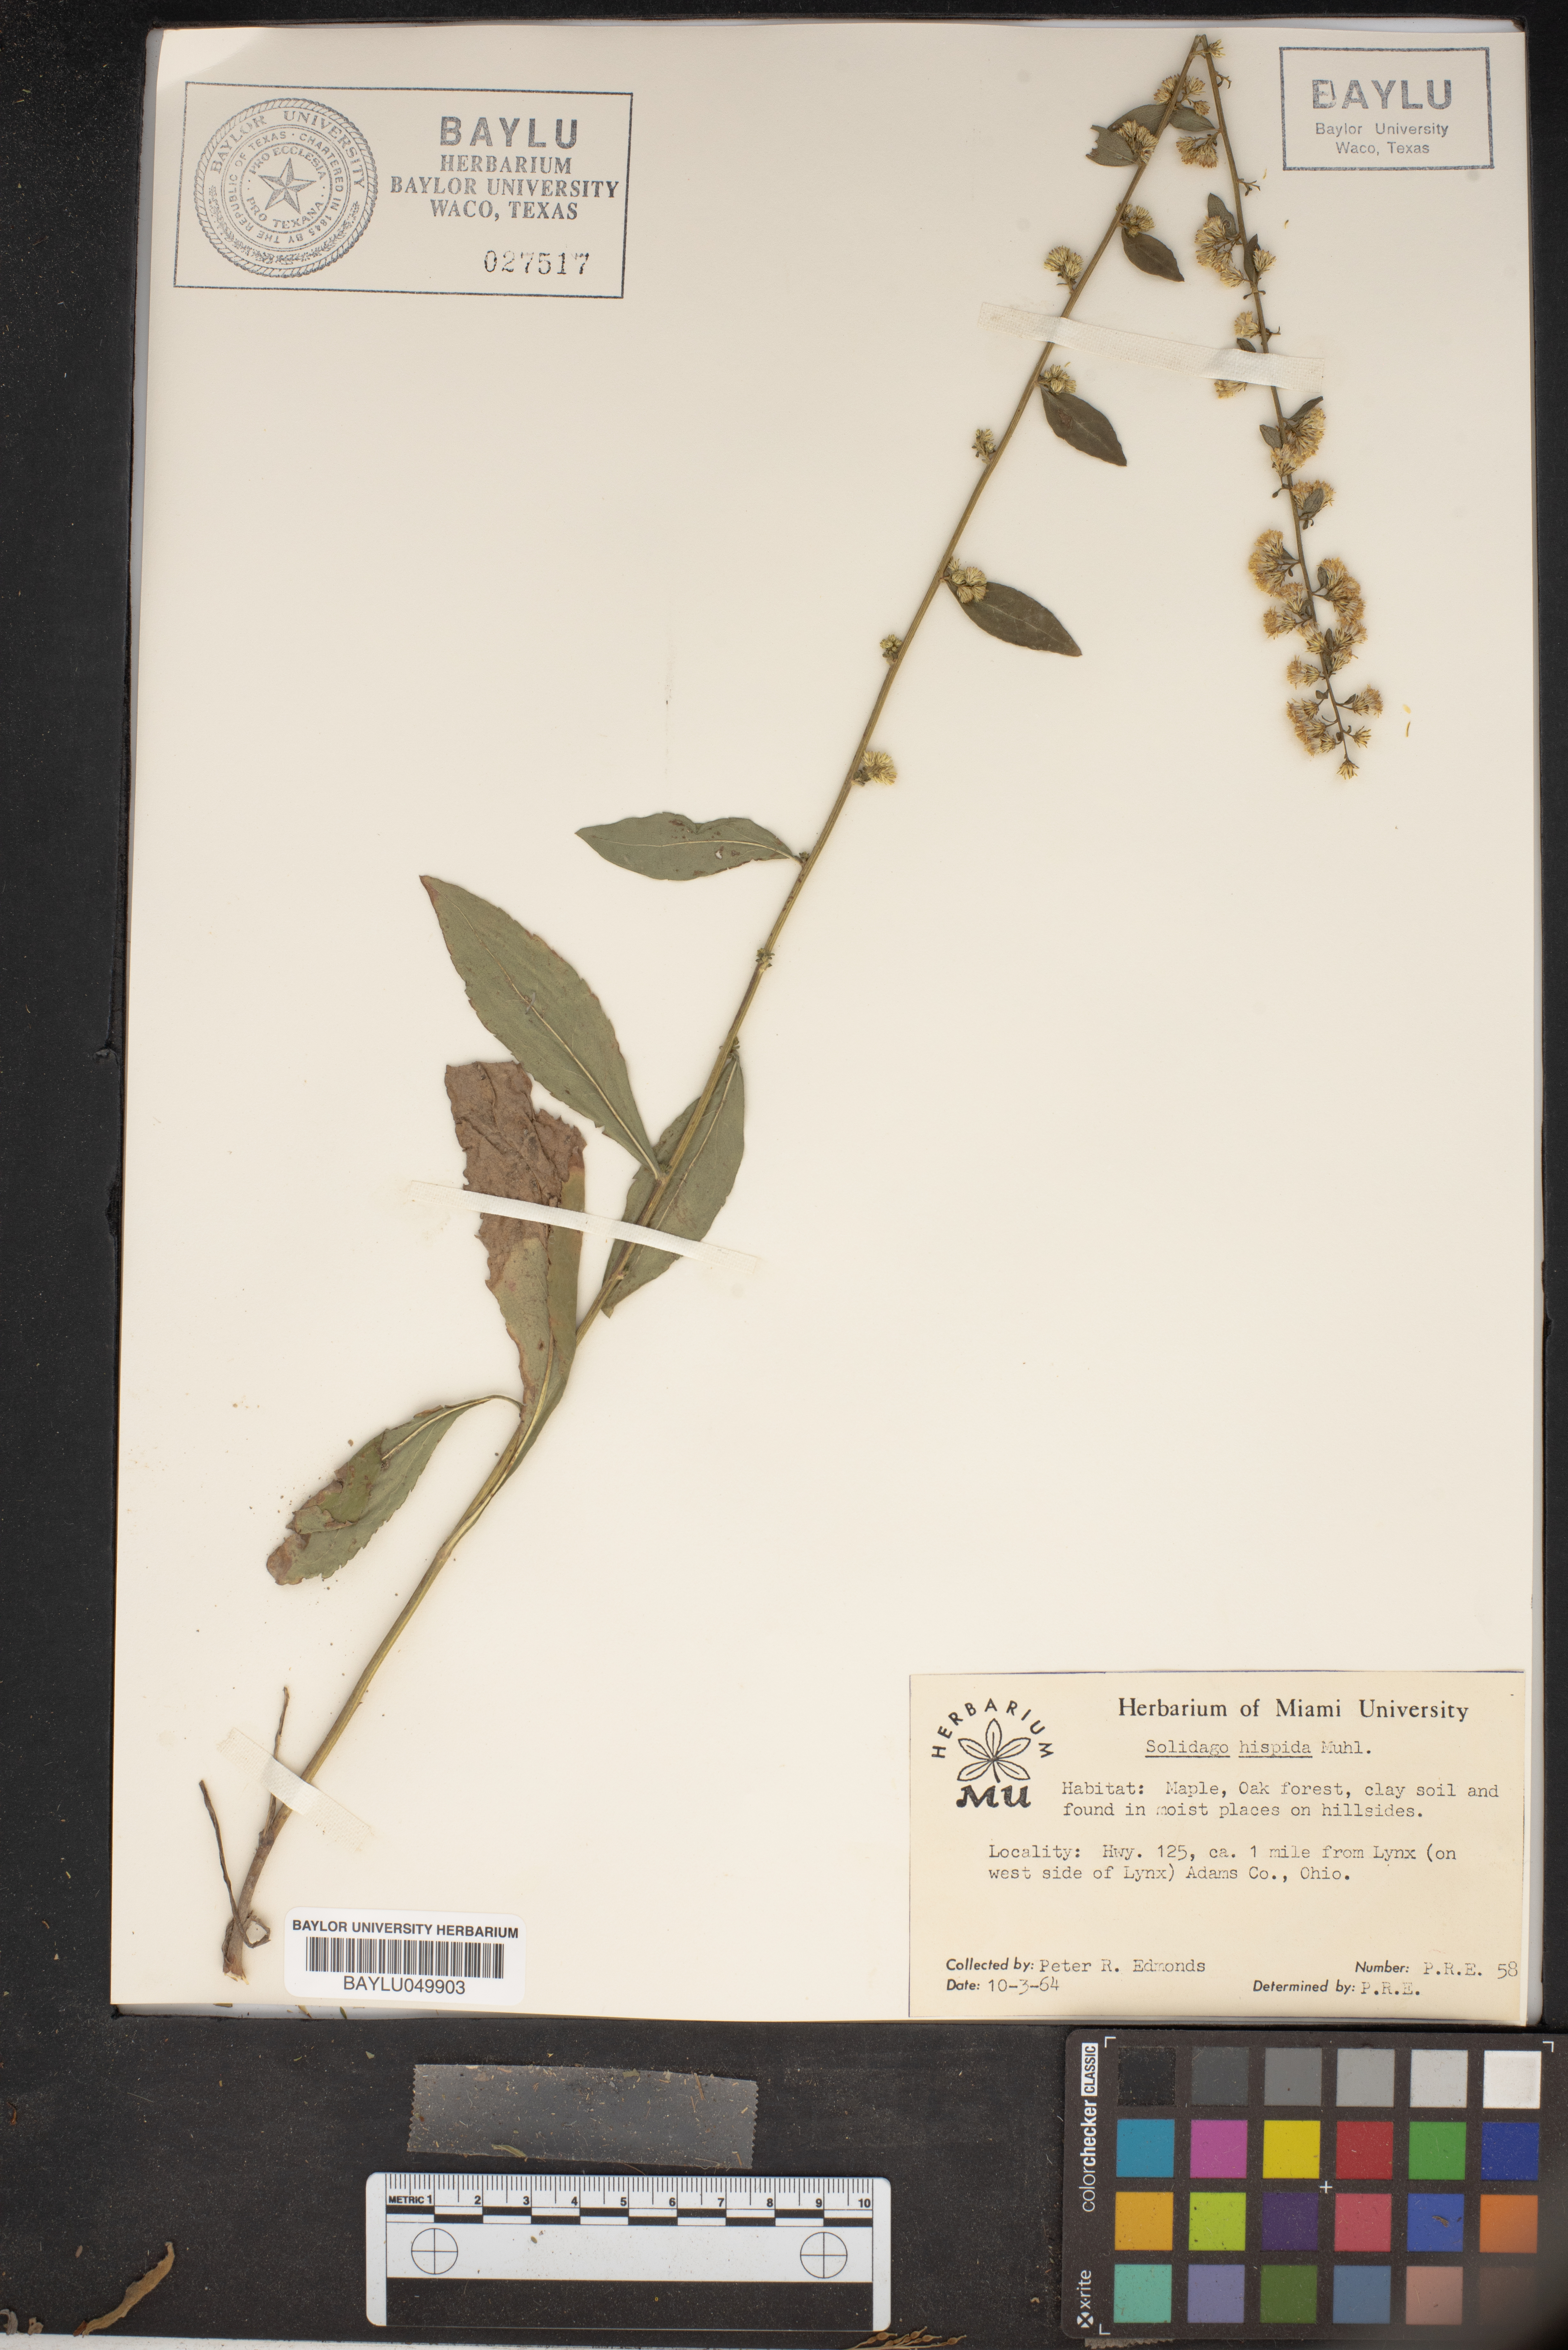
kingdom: Plantae
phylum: Tracheophyta
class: Magnoliopsida
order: Asterales
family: Asteraceae
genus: Solidago
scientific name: Solidago hispida
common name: Hairy goldenrod
